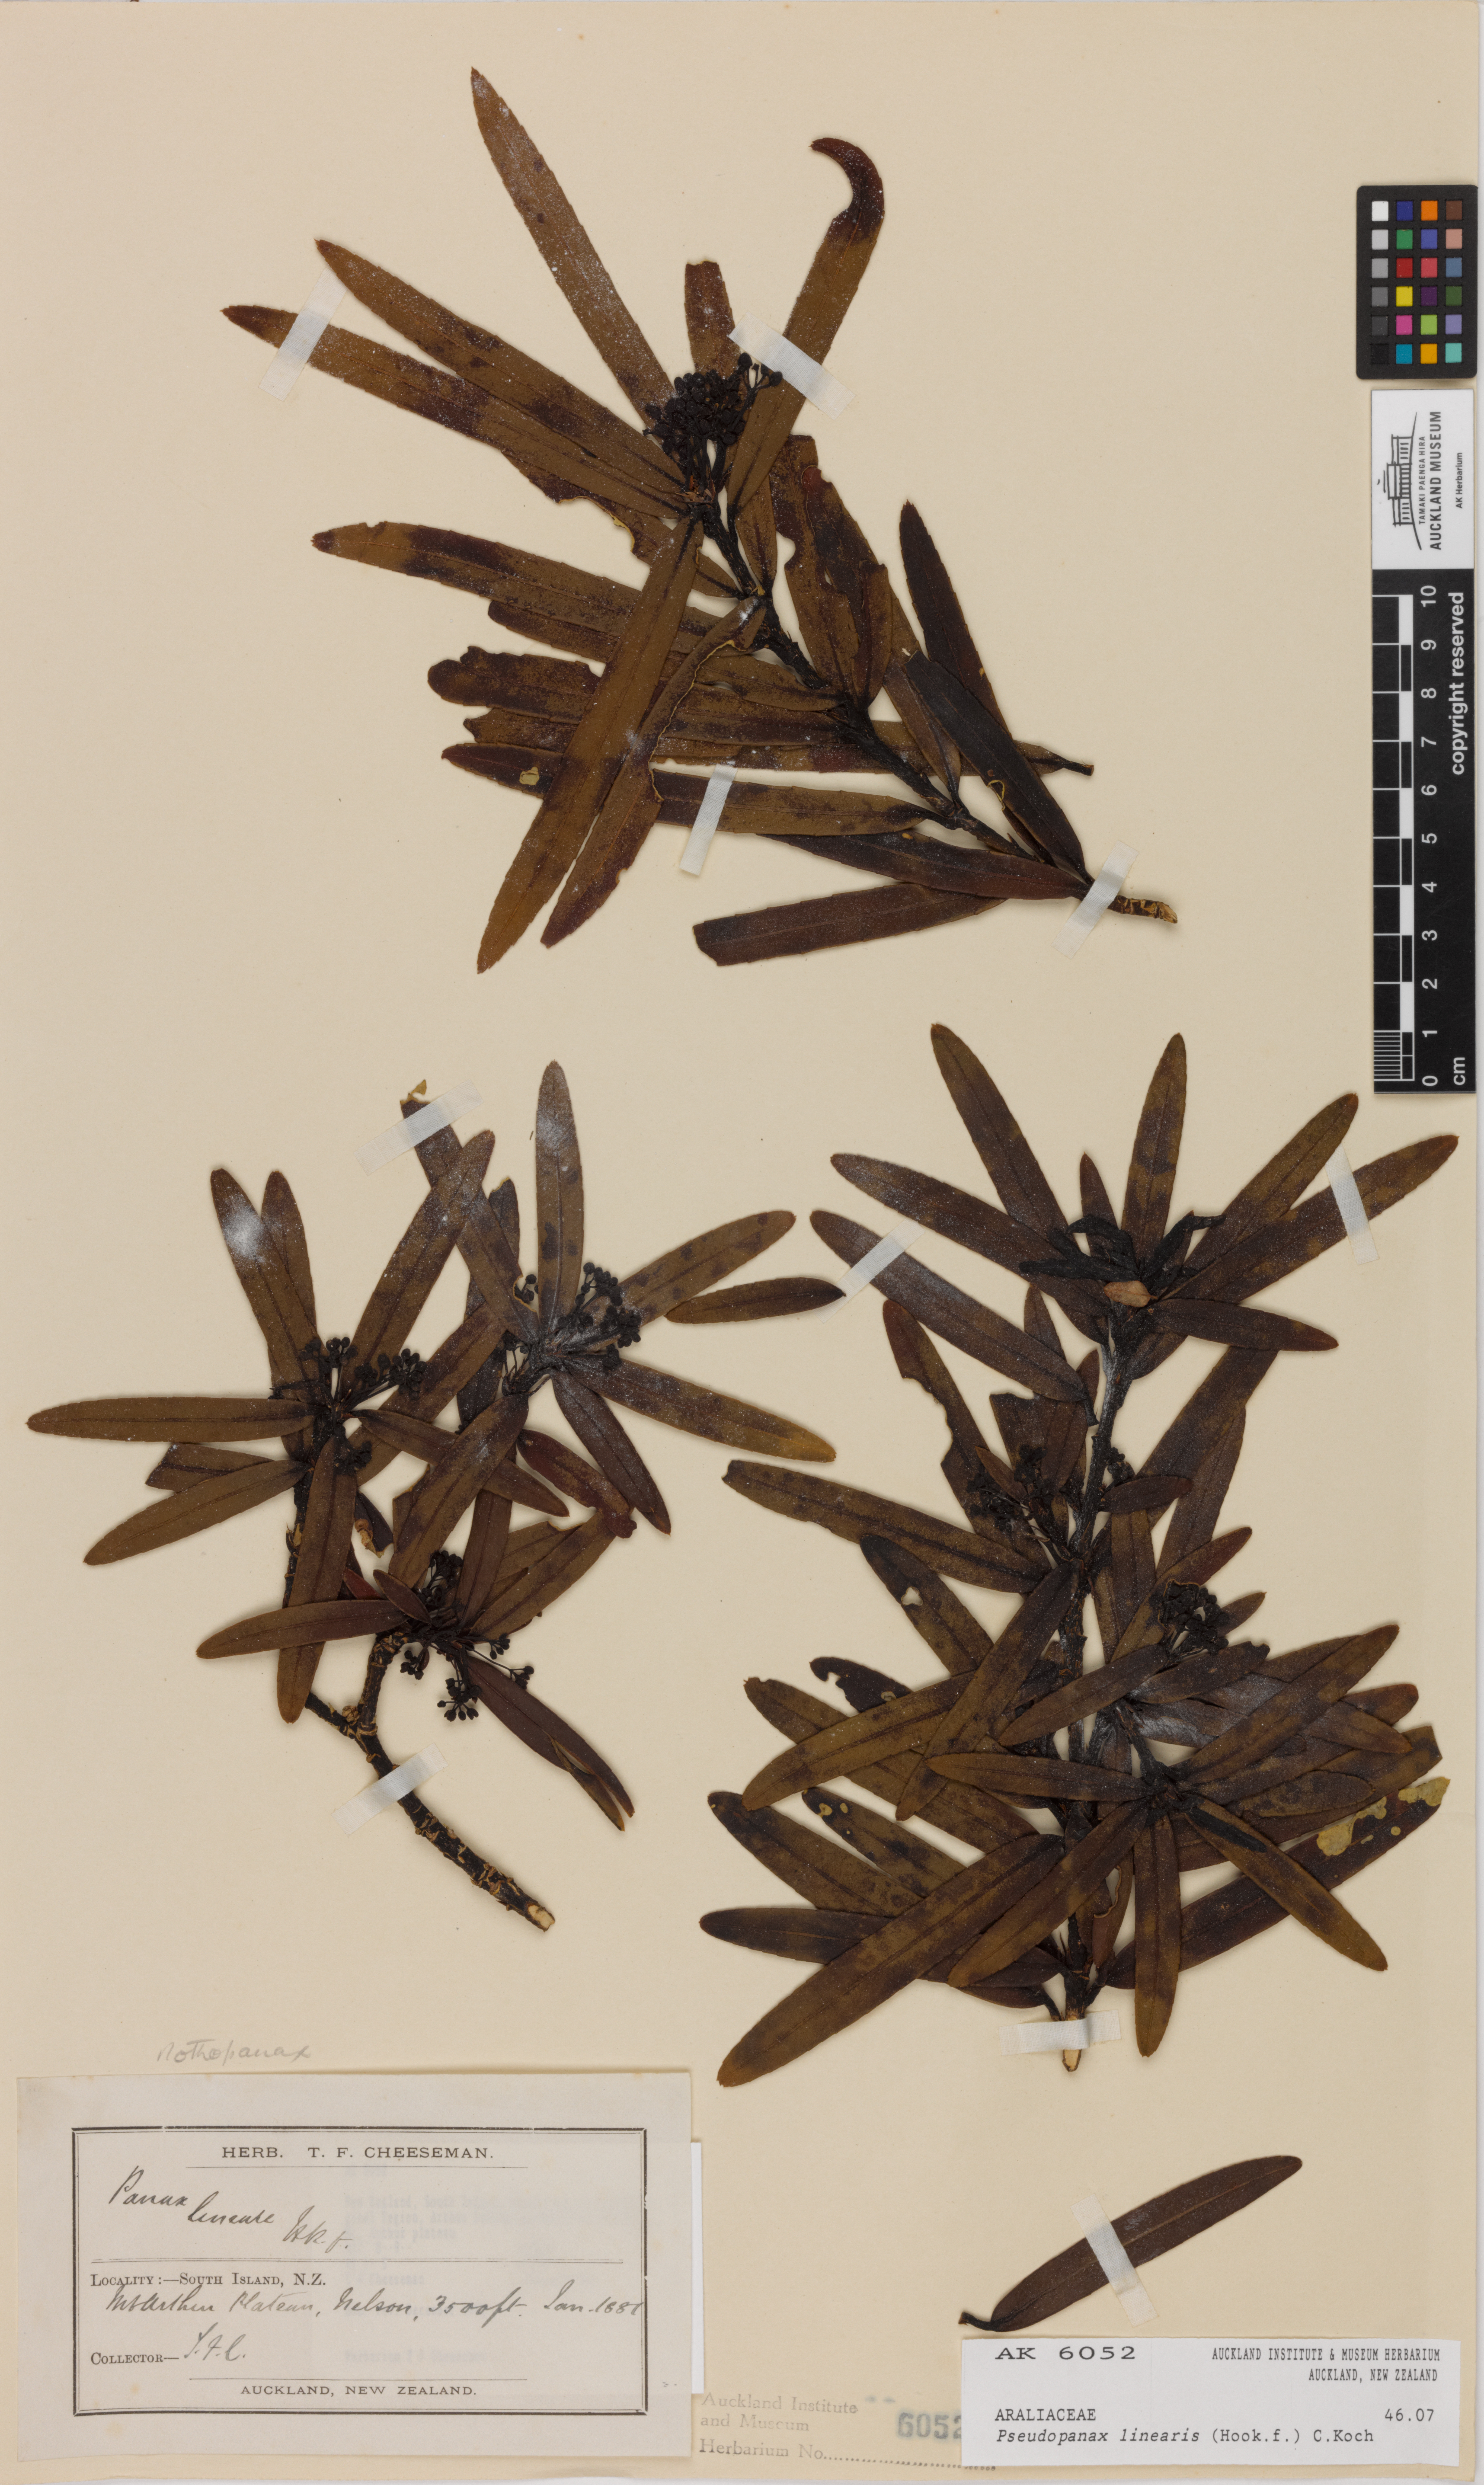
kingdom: Plantae
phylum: Tracheophyta
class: Magnoliopsida
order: Apiales
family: Araliaceae
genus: Pseudopanax
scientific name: Pseudopanax linearis
